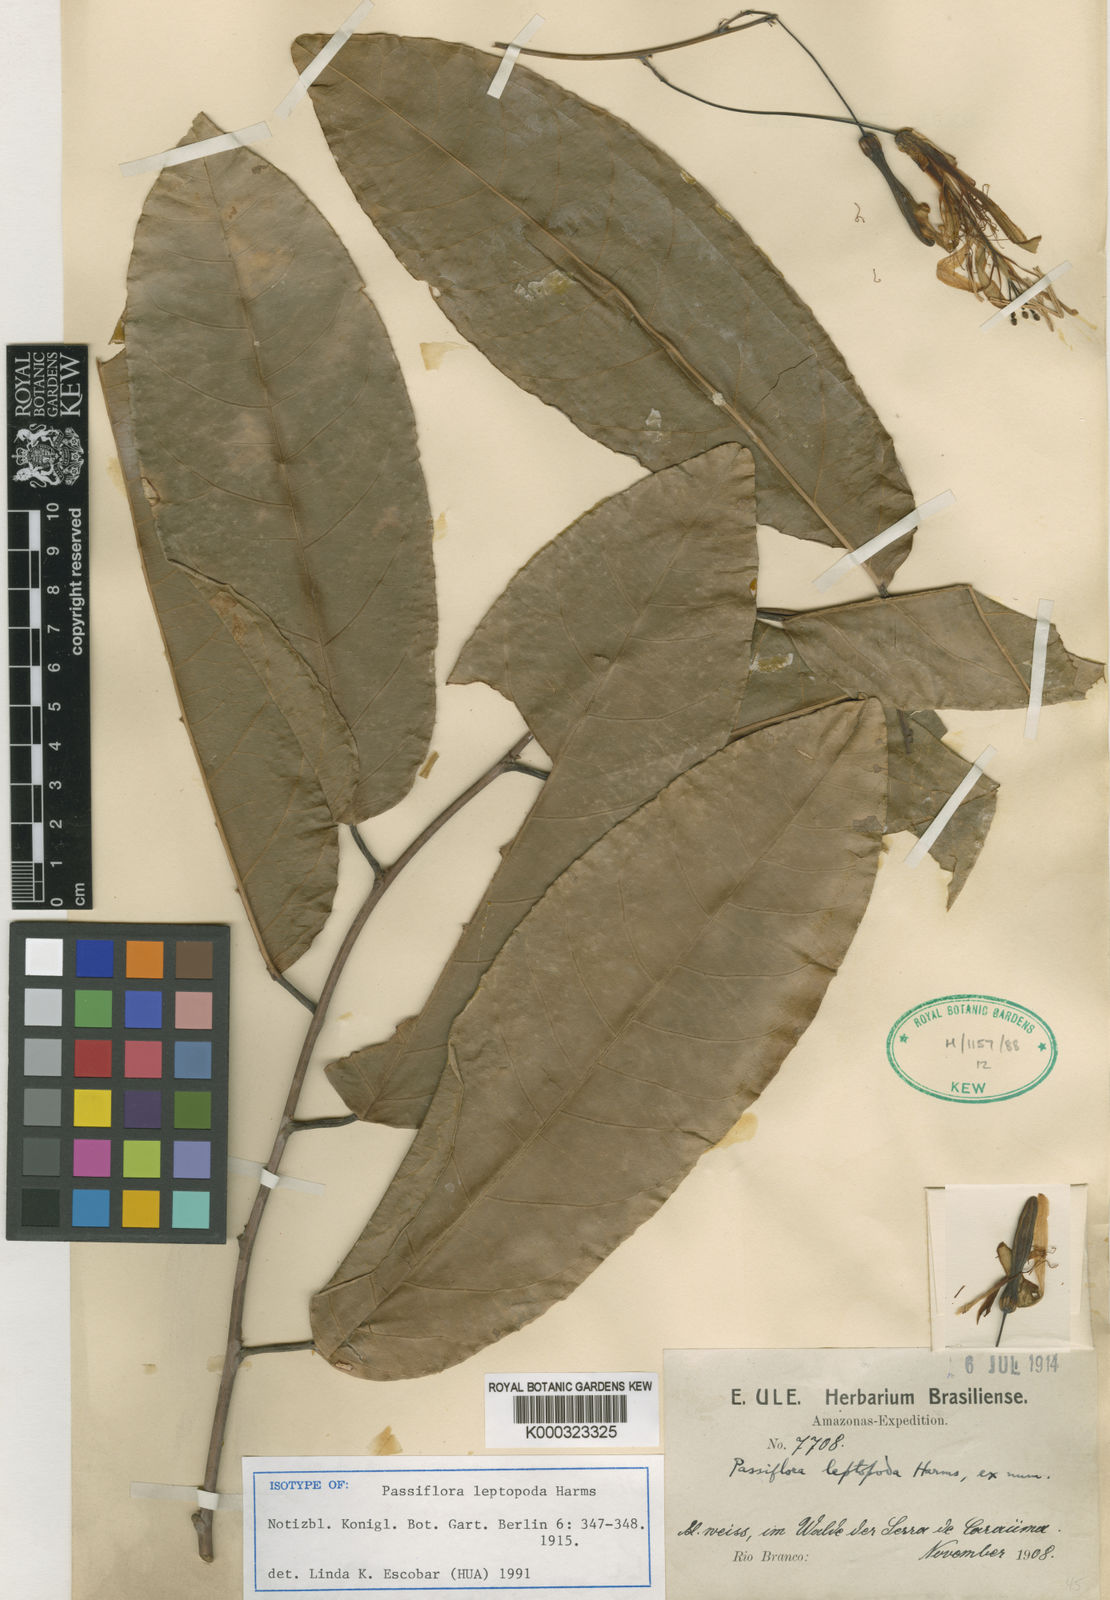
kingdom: Plantae
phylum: Tracheophyta
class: Magnoliopsida
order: Malpighiales
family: Passifloraceae
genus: Passiflora
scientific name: Passiflora leptoclada
